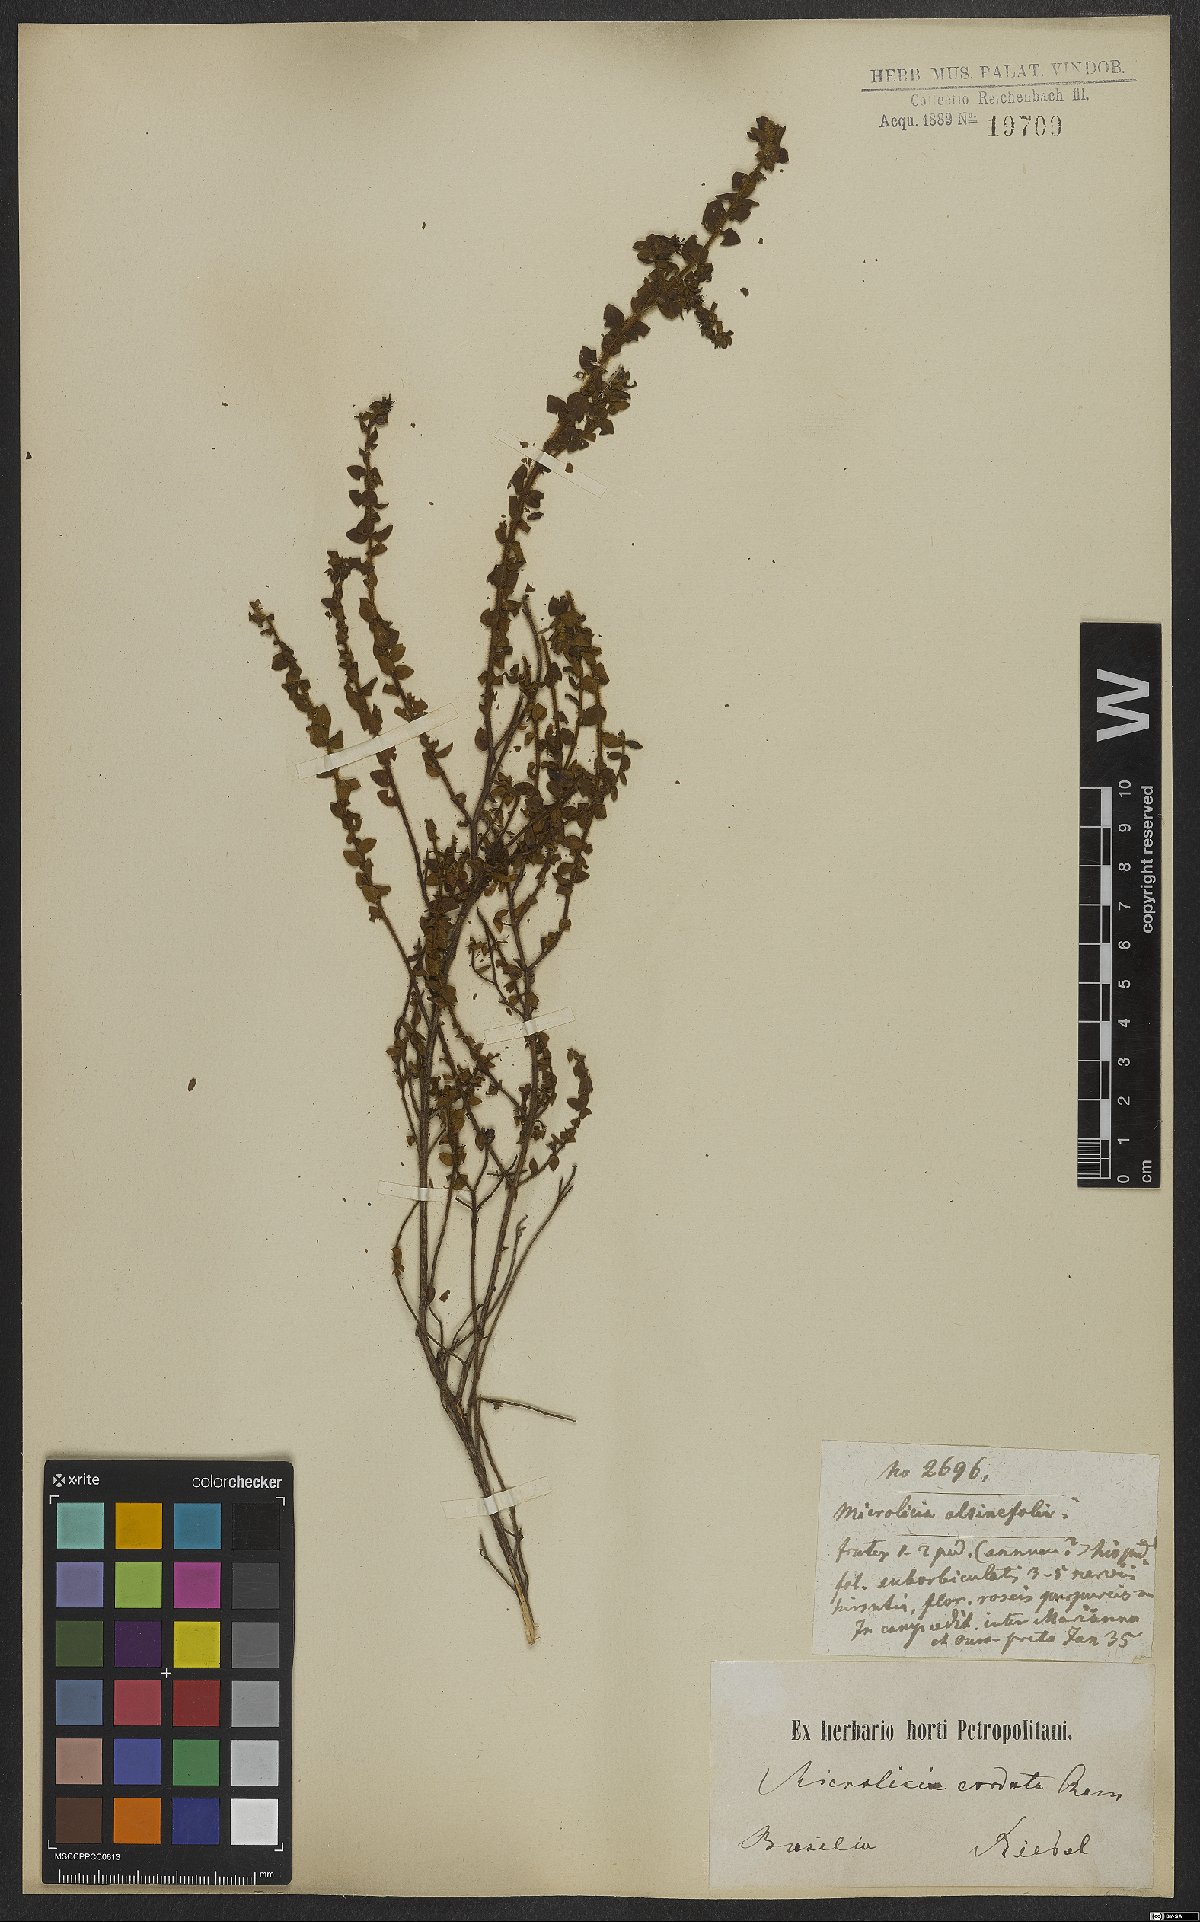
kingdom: Plantae
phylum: Tracheophyta
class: Magnoliopsida
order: Myrtales
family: Melastomataceae
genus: Microlicia
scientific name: Microlicia cordata
